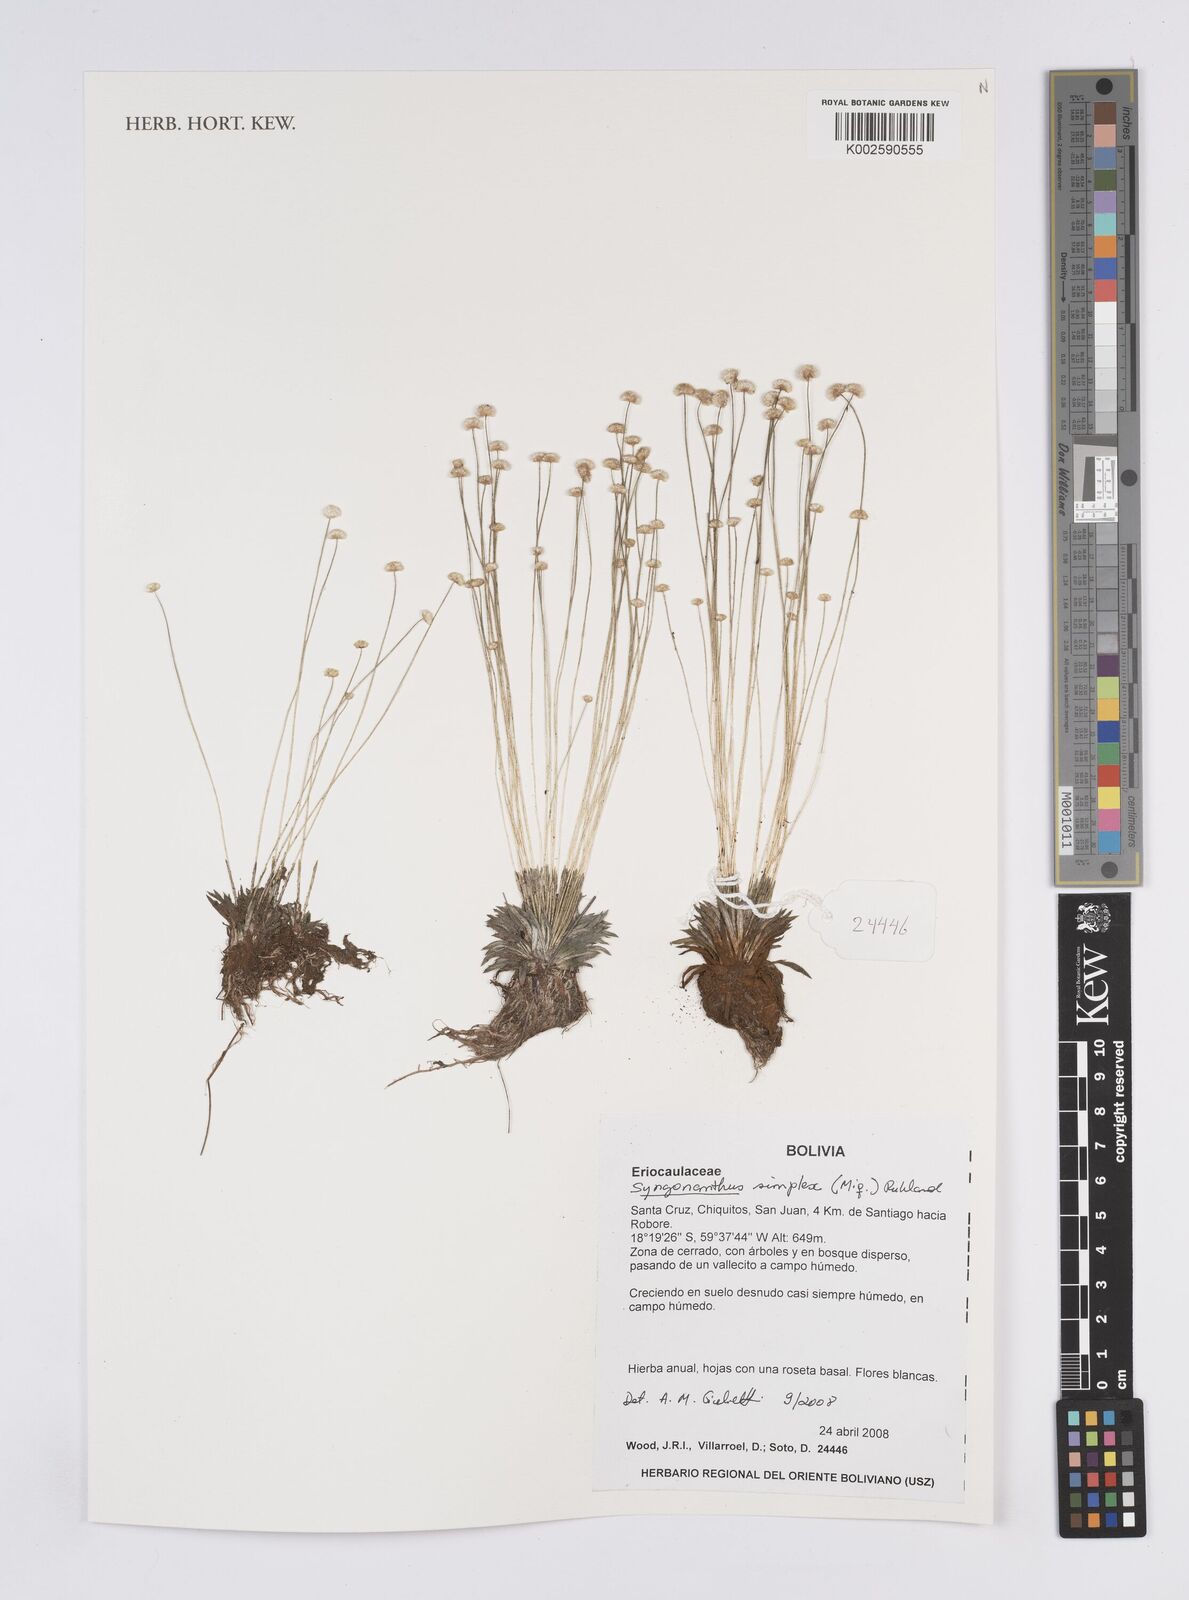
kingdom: Plantae
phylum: Tracheophyta
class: Liliopsida
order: Poales
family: Eriocaulaceae
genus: Syngonanthus
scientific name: Syngonanthus simplex
